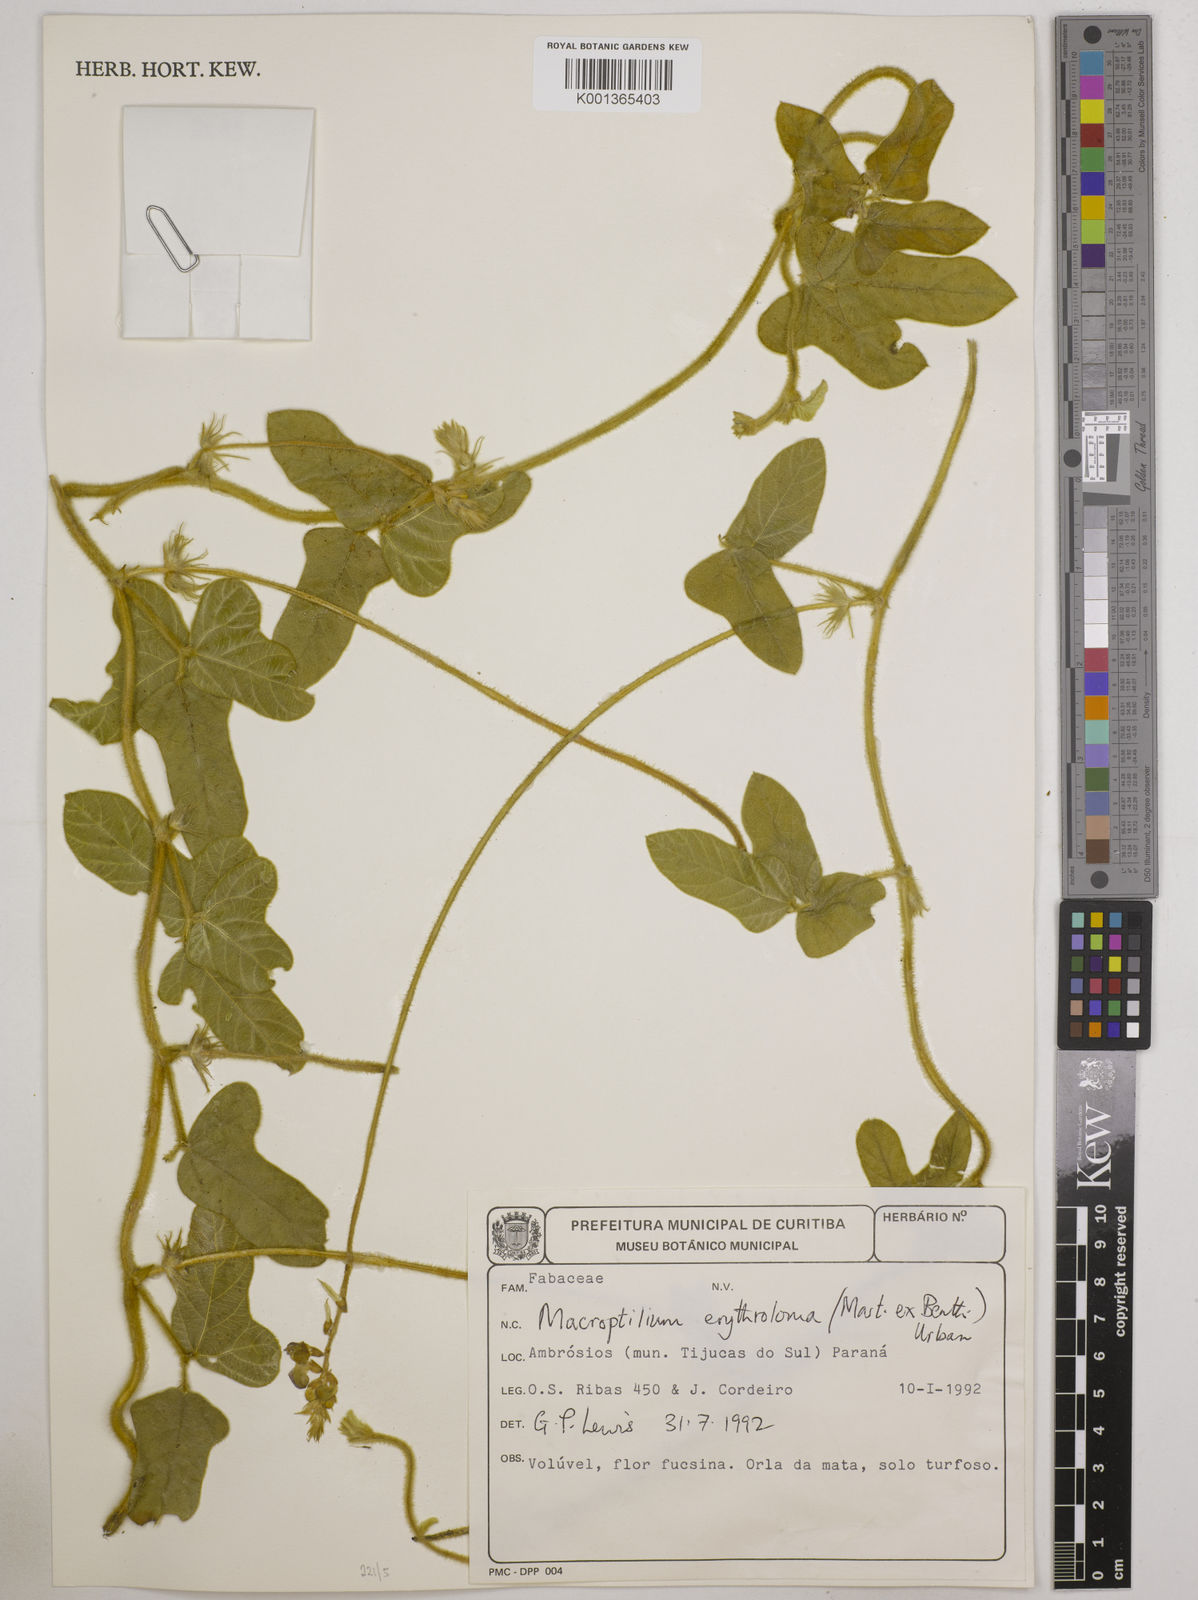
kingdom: Plantae
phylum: Tracheophyta
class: Magnoliopsida
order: Fabales
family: Fabaceae
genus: Macroptilium
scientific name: Macroptilium erythroloma
